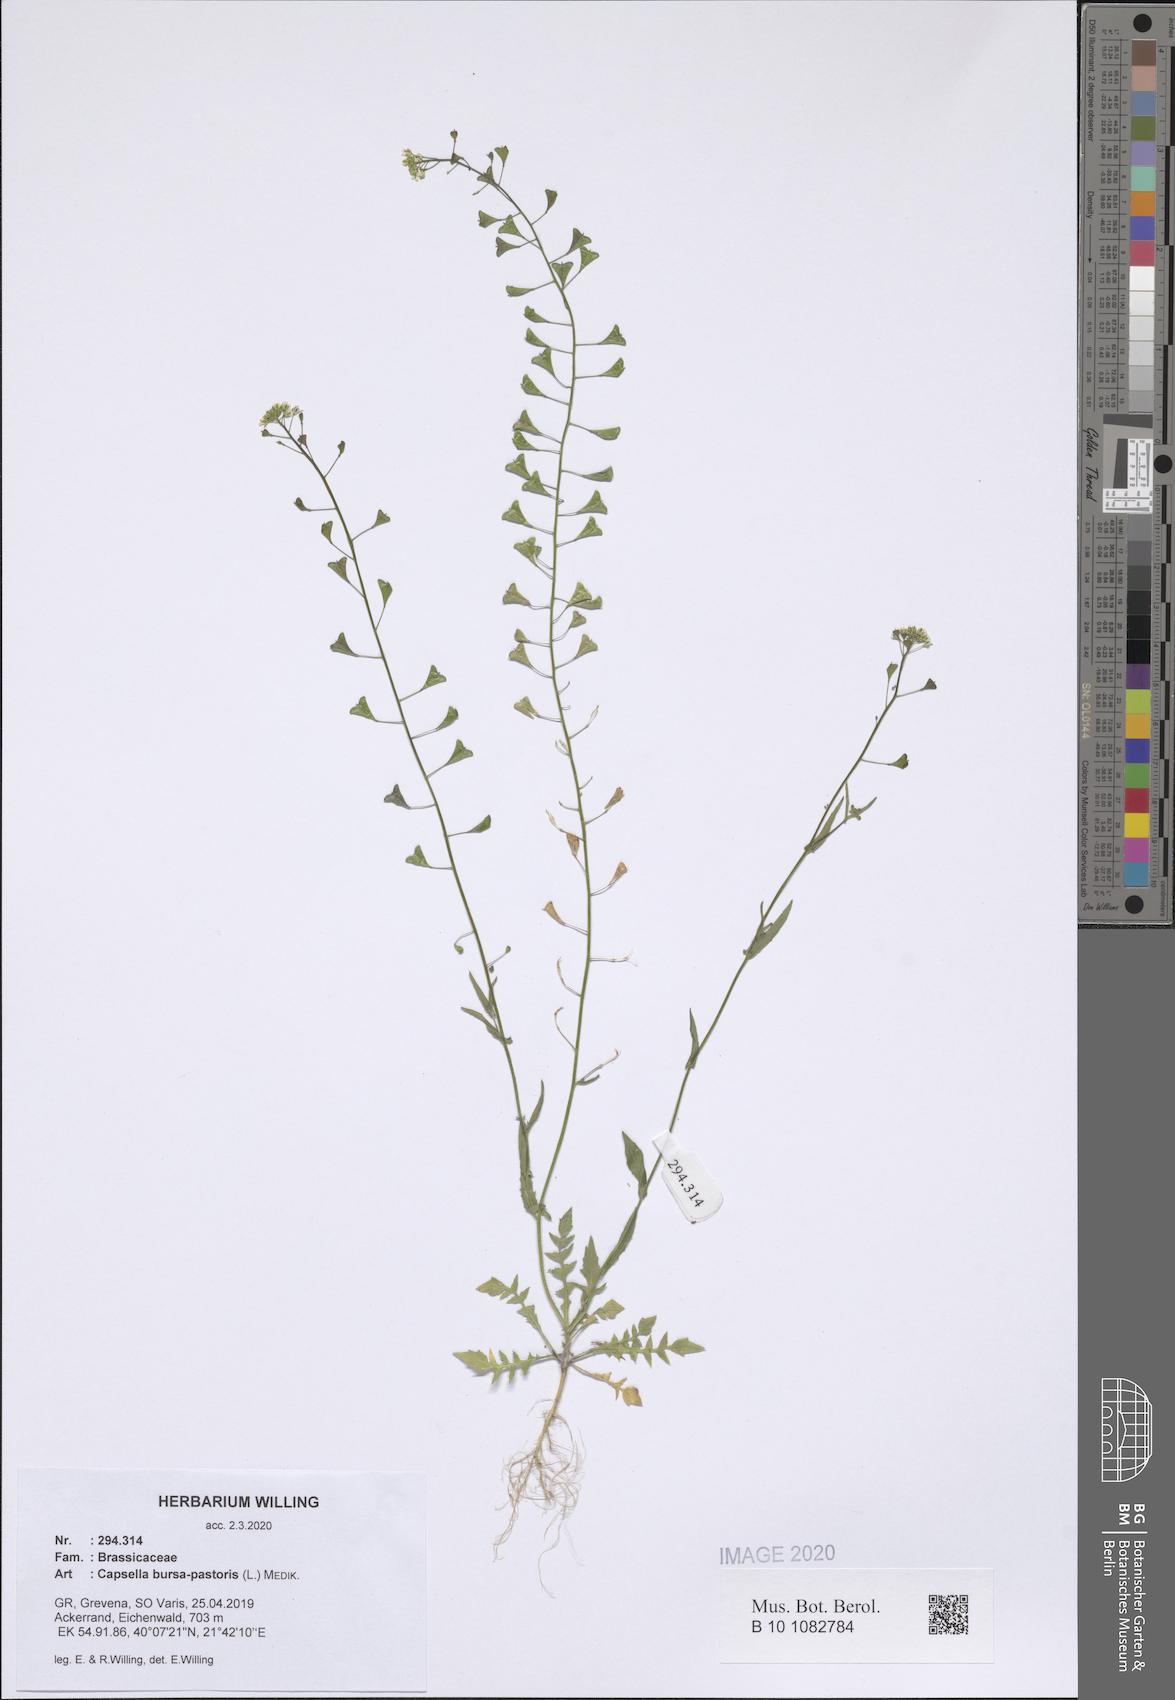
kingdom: Plantae
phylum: Tracheophyta
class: Magnoliopsida
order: Brassicales
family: Brassicaceae
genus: Capsella
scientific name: Capsella bursa-pastoris
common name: Shepherd's purse
